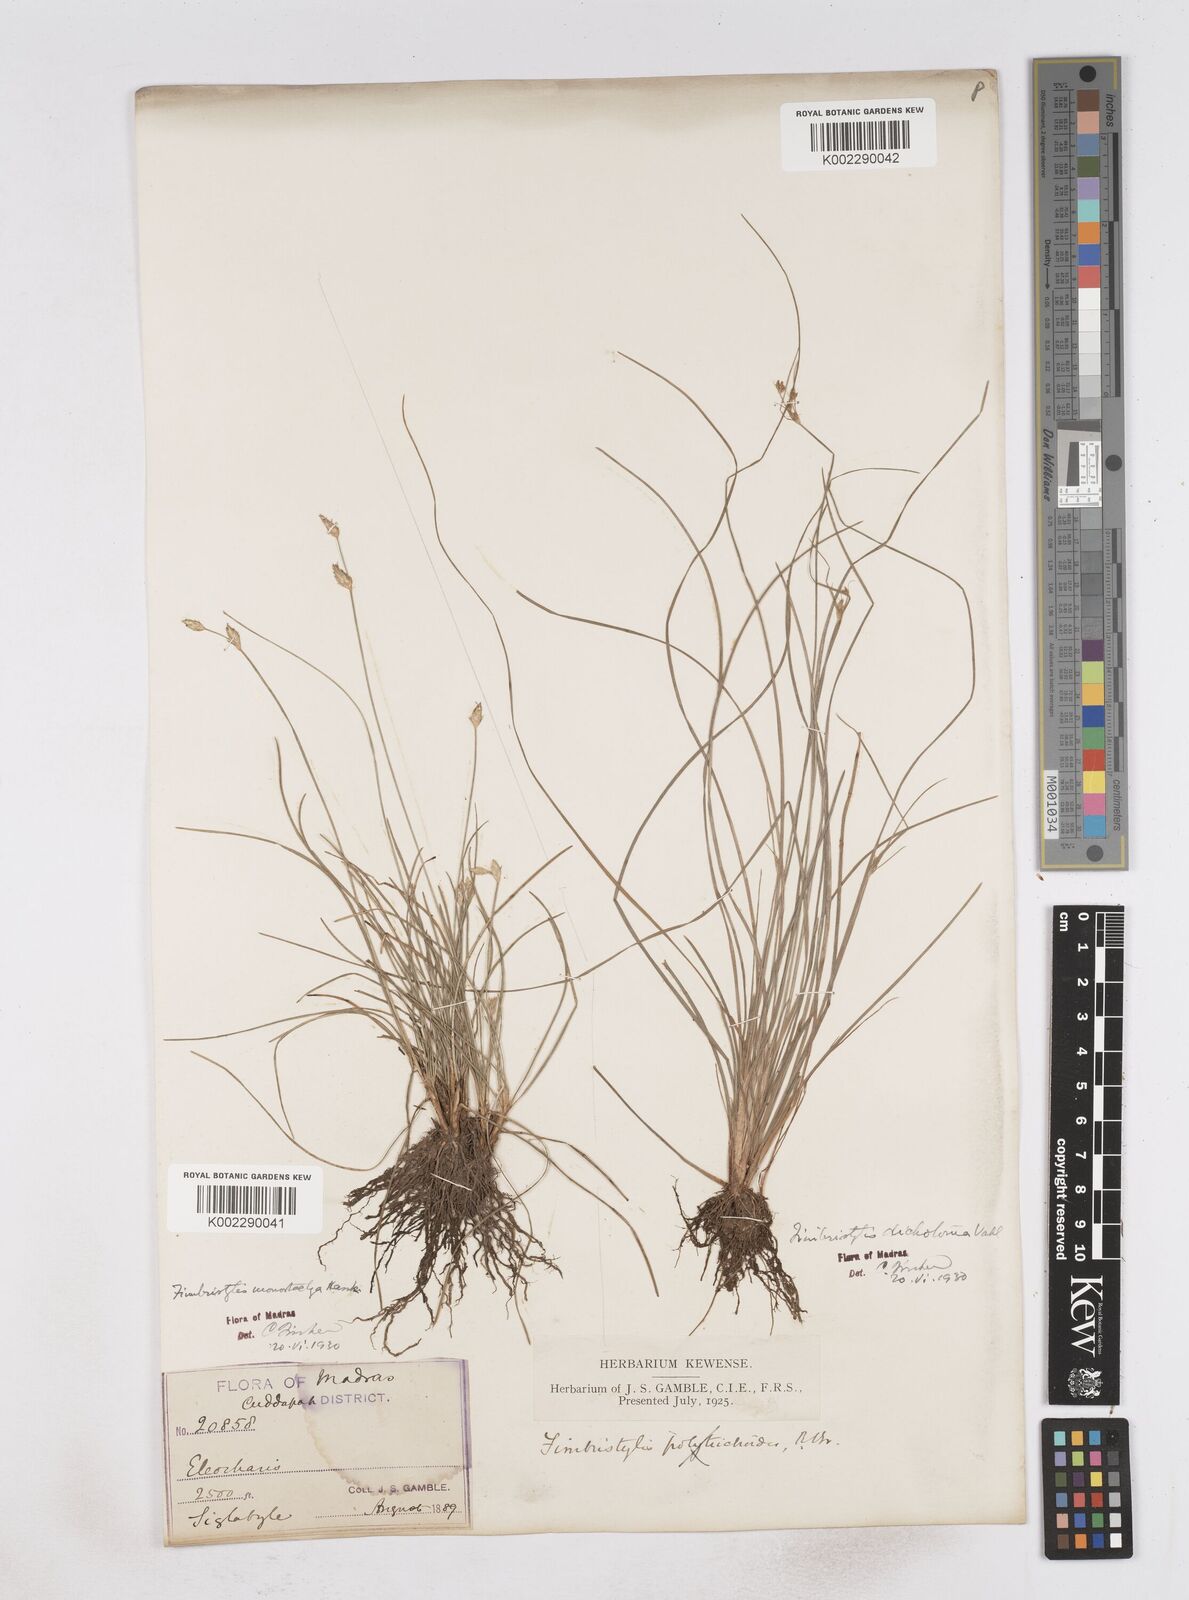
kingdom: Plantae
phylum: Tracheophyta
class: Liliopsida
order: Poales
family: Cyperaceae
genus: Abildgaardia
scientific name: Abildgaardia ovata
